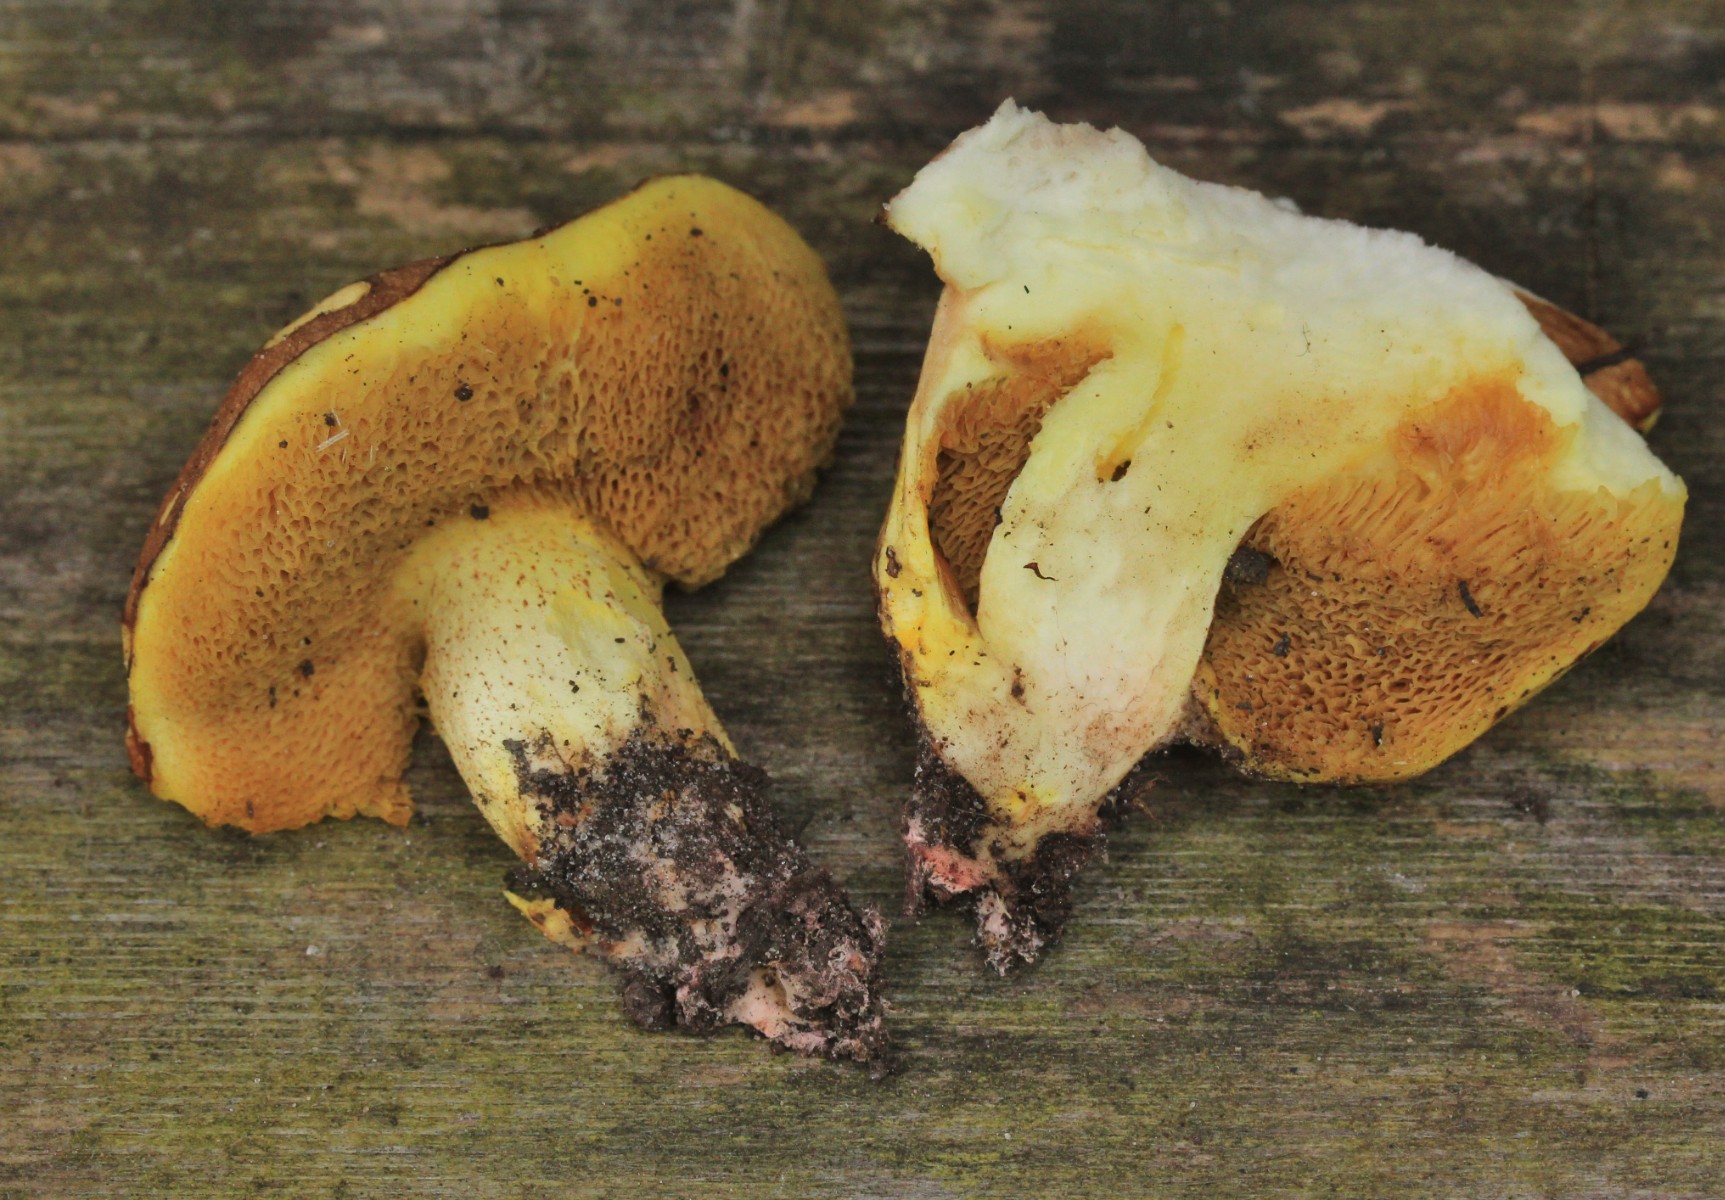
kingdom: Fungi
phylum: Basidiomycota
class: Agaricomycetes
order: Boletales
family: Suillaceae
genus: Suillus
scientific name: Suillus collinitus
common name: rosafodet slimrørhat
